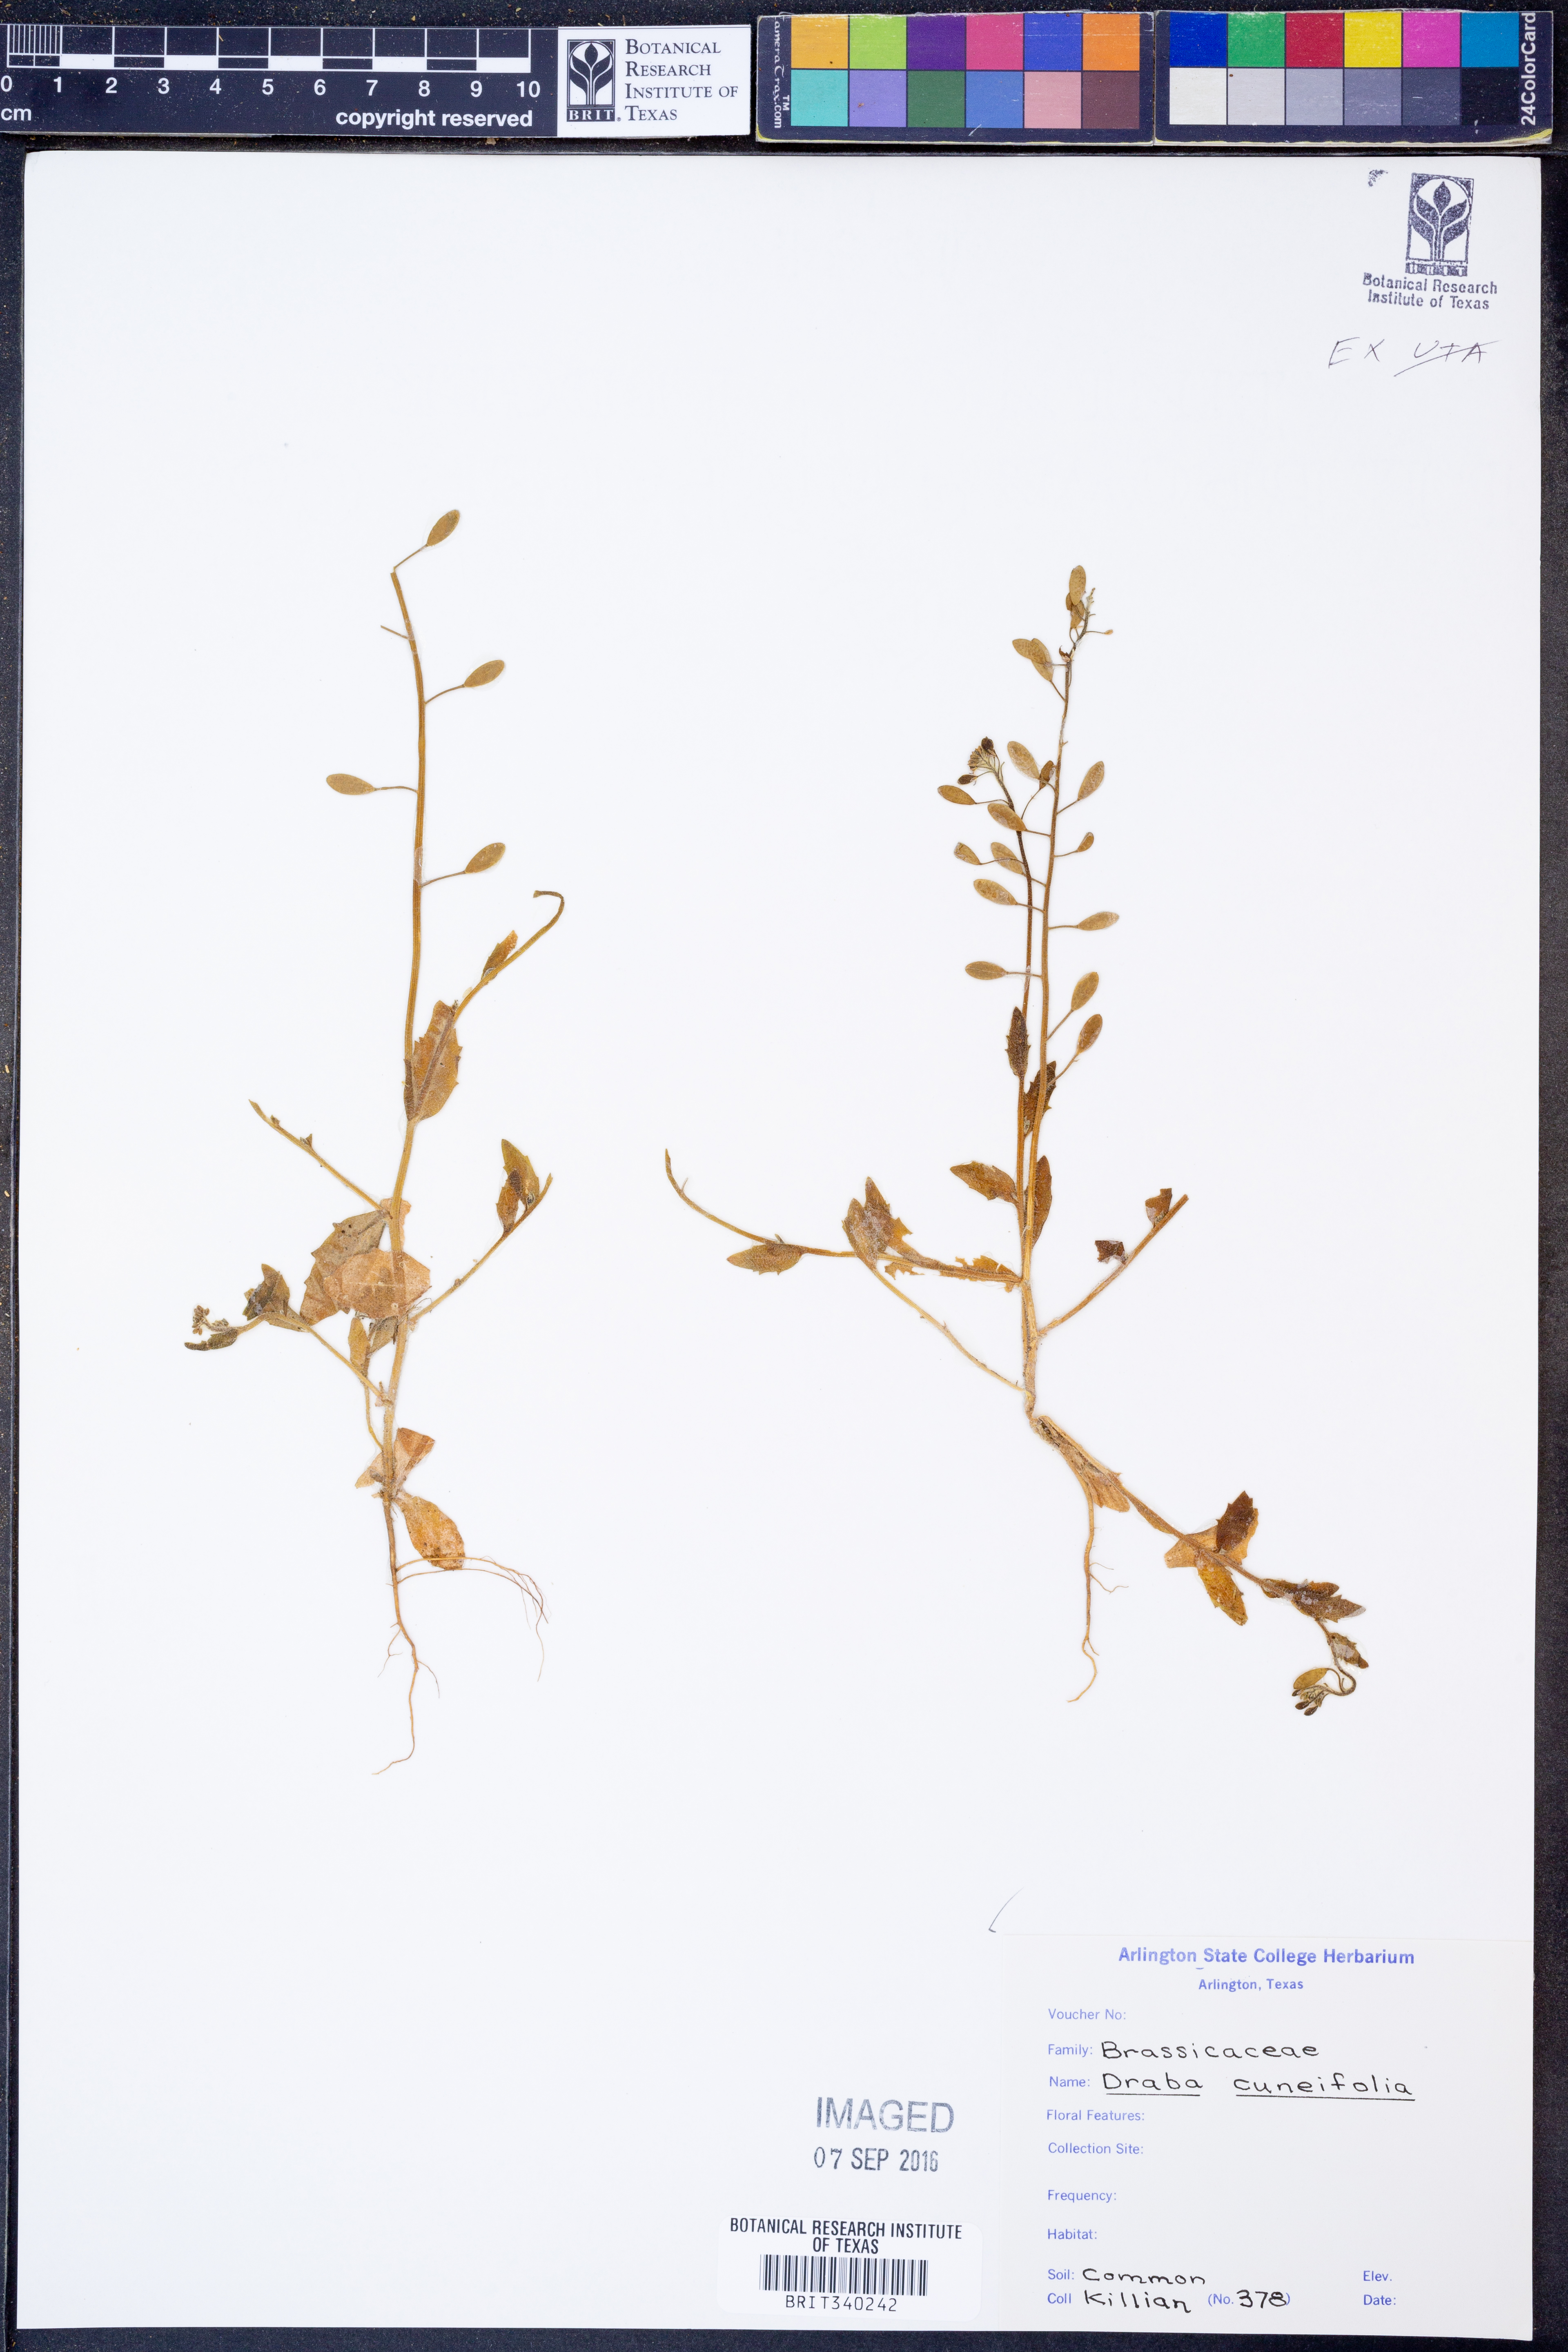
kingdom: Plantae
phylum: Tracheophyta
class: Magnoliopsida
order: Brassicales
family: Brassicaceae
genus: Tomostima
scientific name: Tomostima cuneifolia
